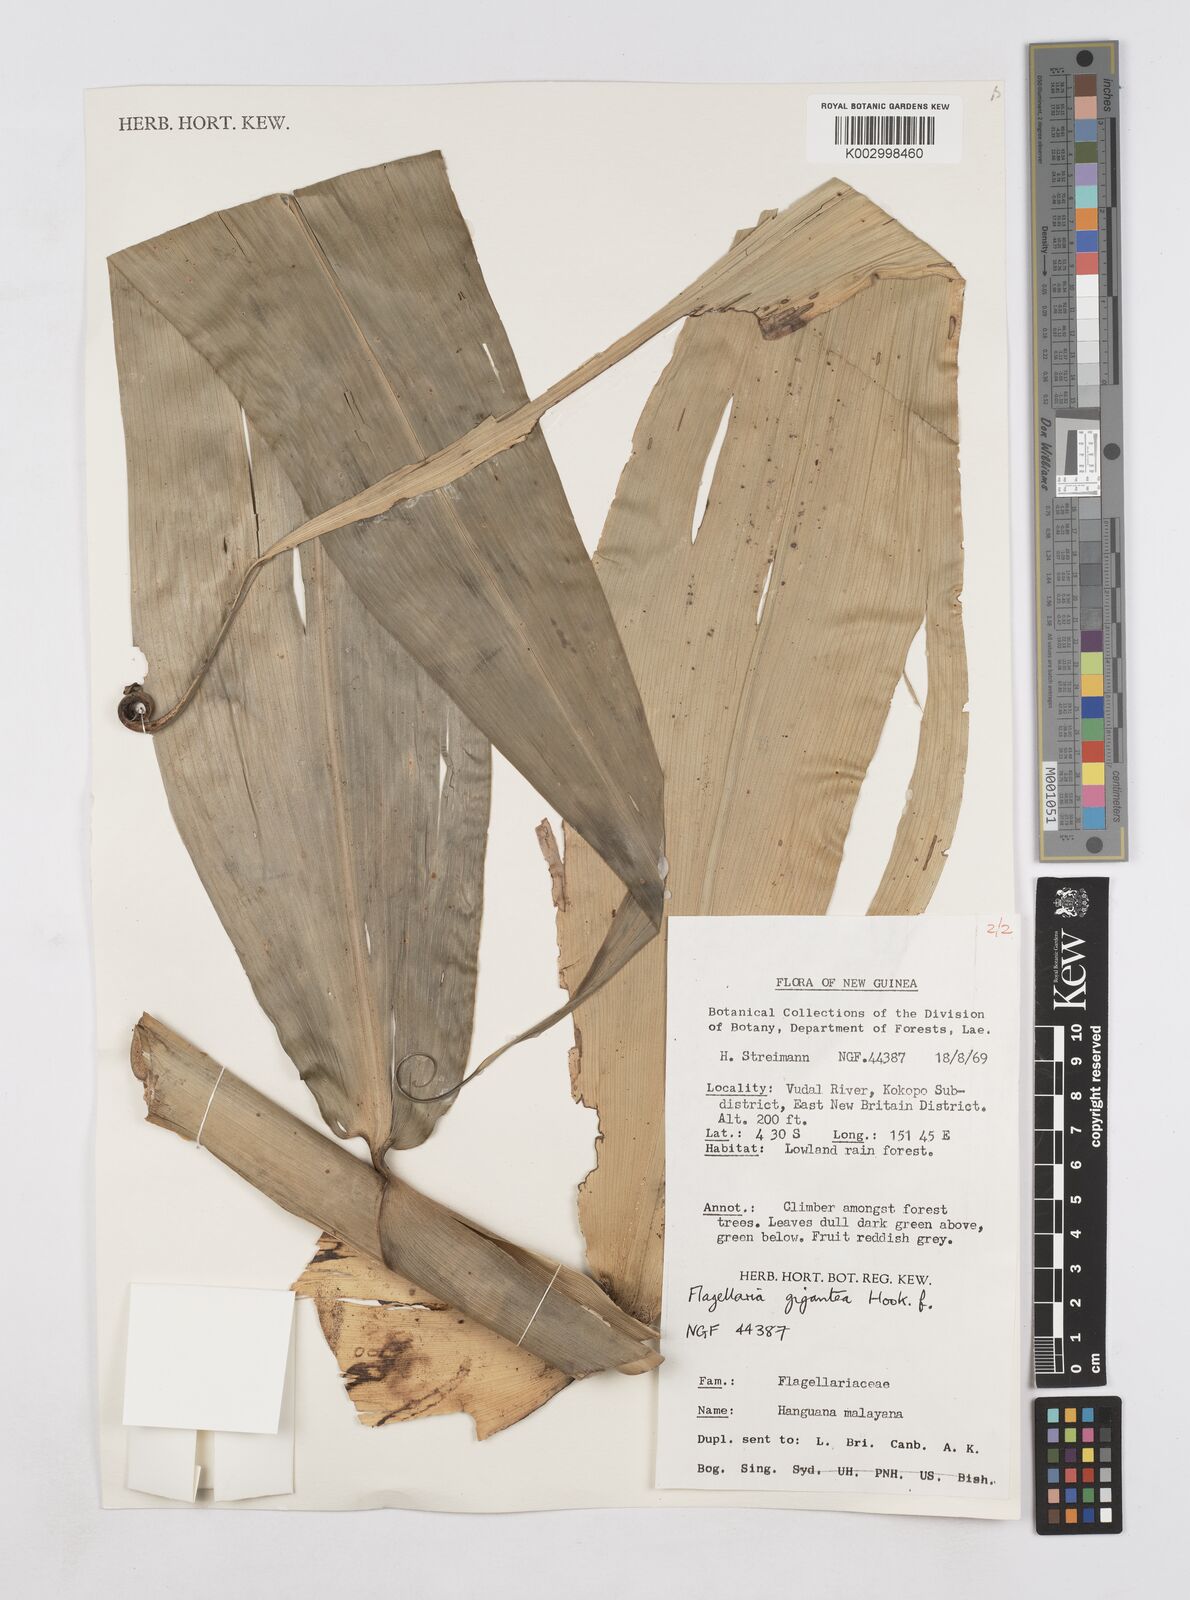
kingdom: Plantae
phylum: Tracheophyta
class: Liliopsida
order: Poales
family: Flagellariaceae
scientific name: Flagellariaceae
